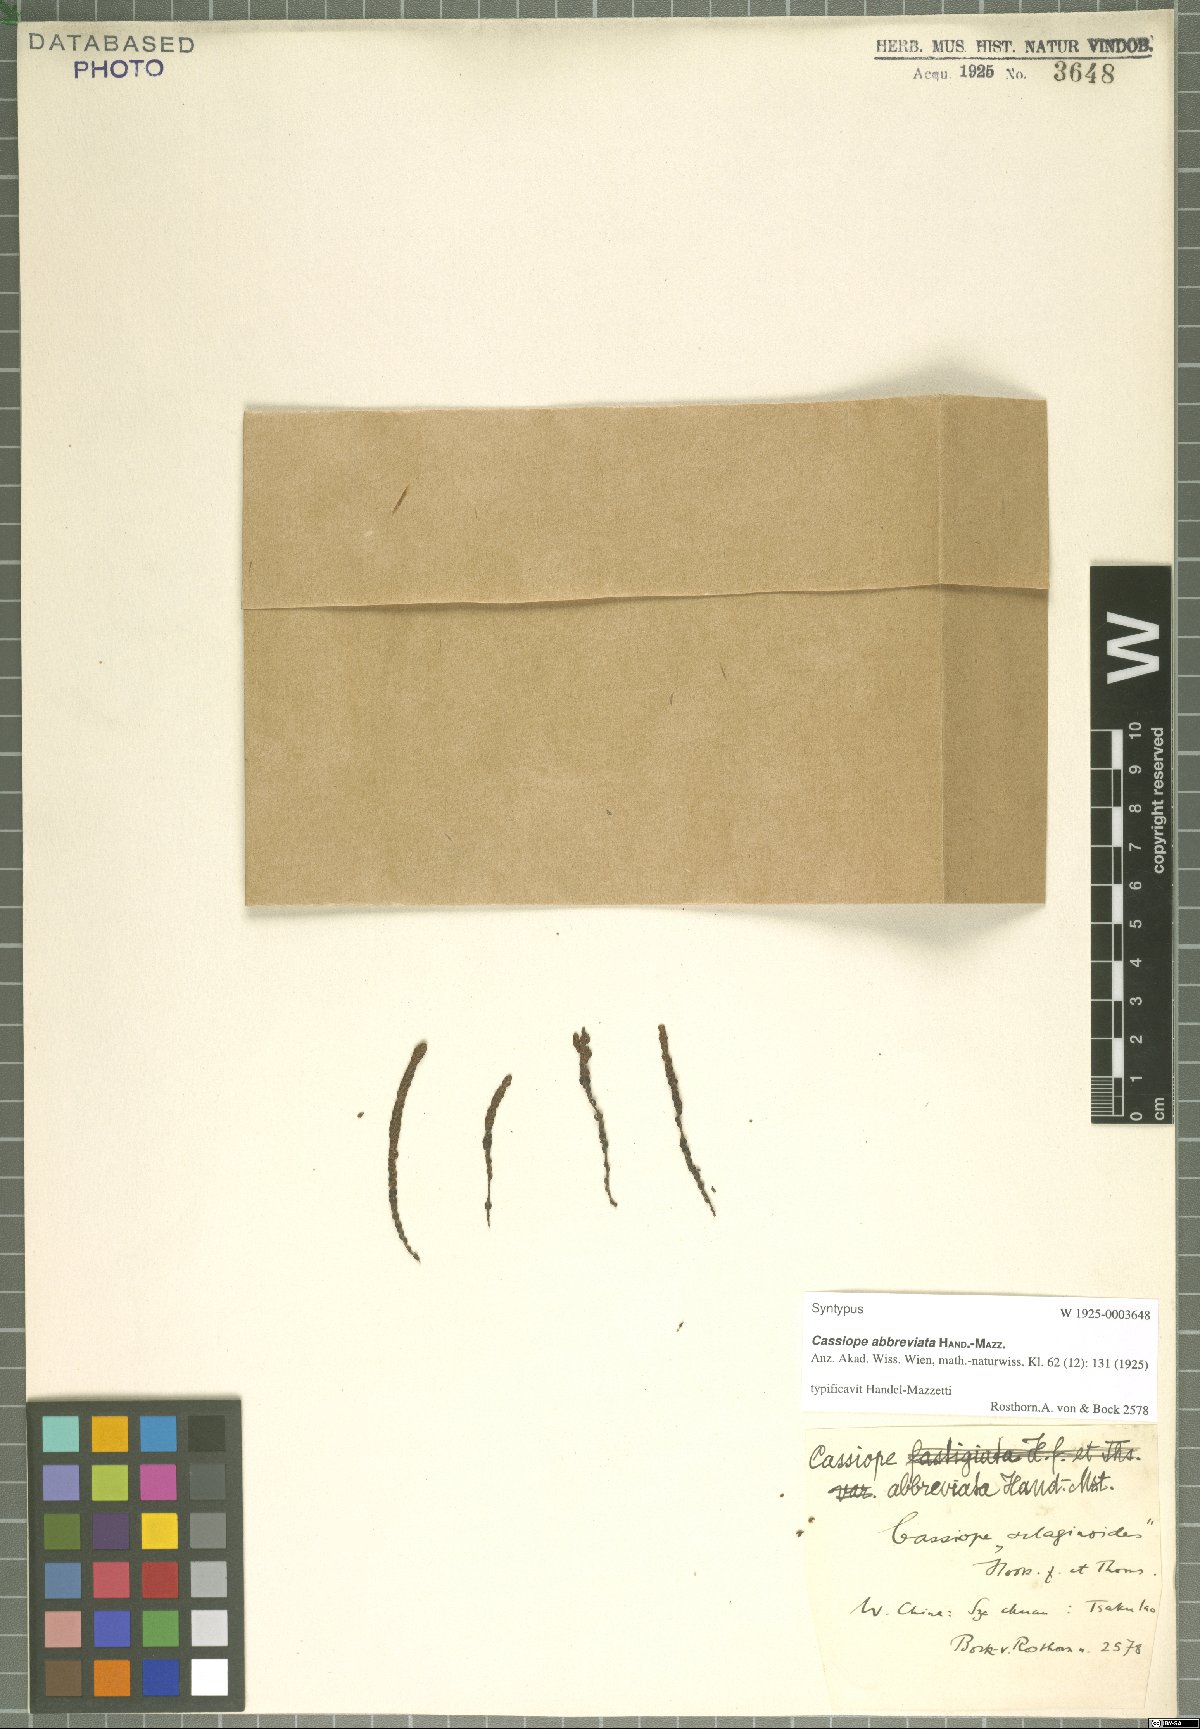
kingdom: Plantae
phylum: Tracheophyta
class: Magnoliopsida
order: Ericales
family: Ericaceae
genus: Cassiope
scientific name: Cassiope abbreviata
